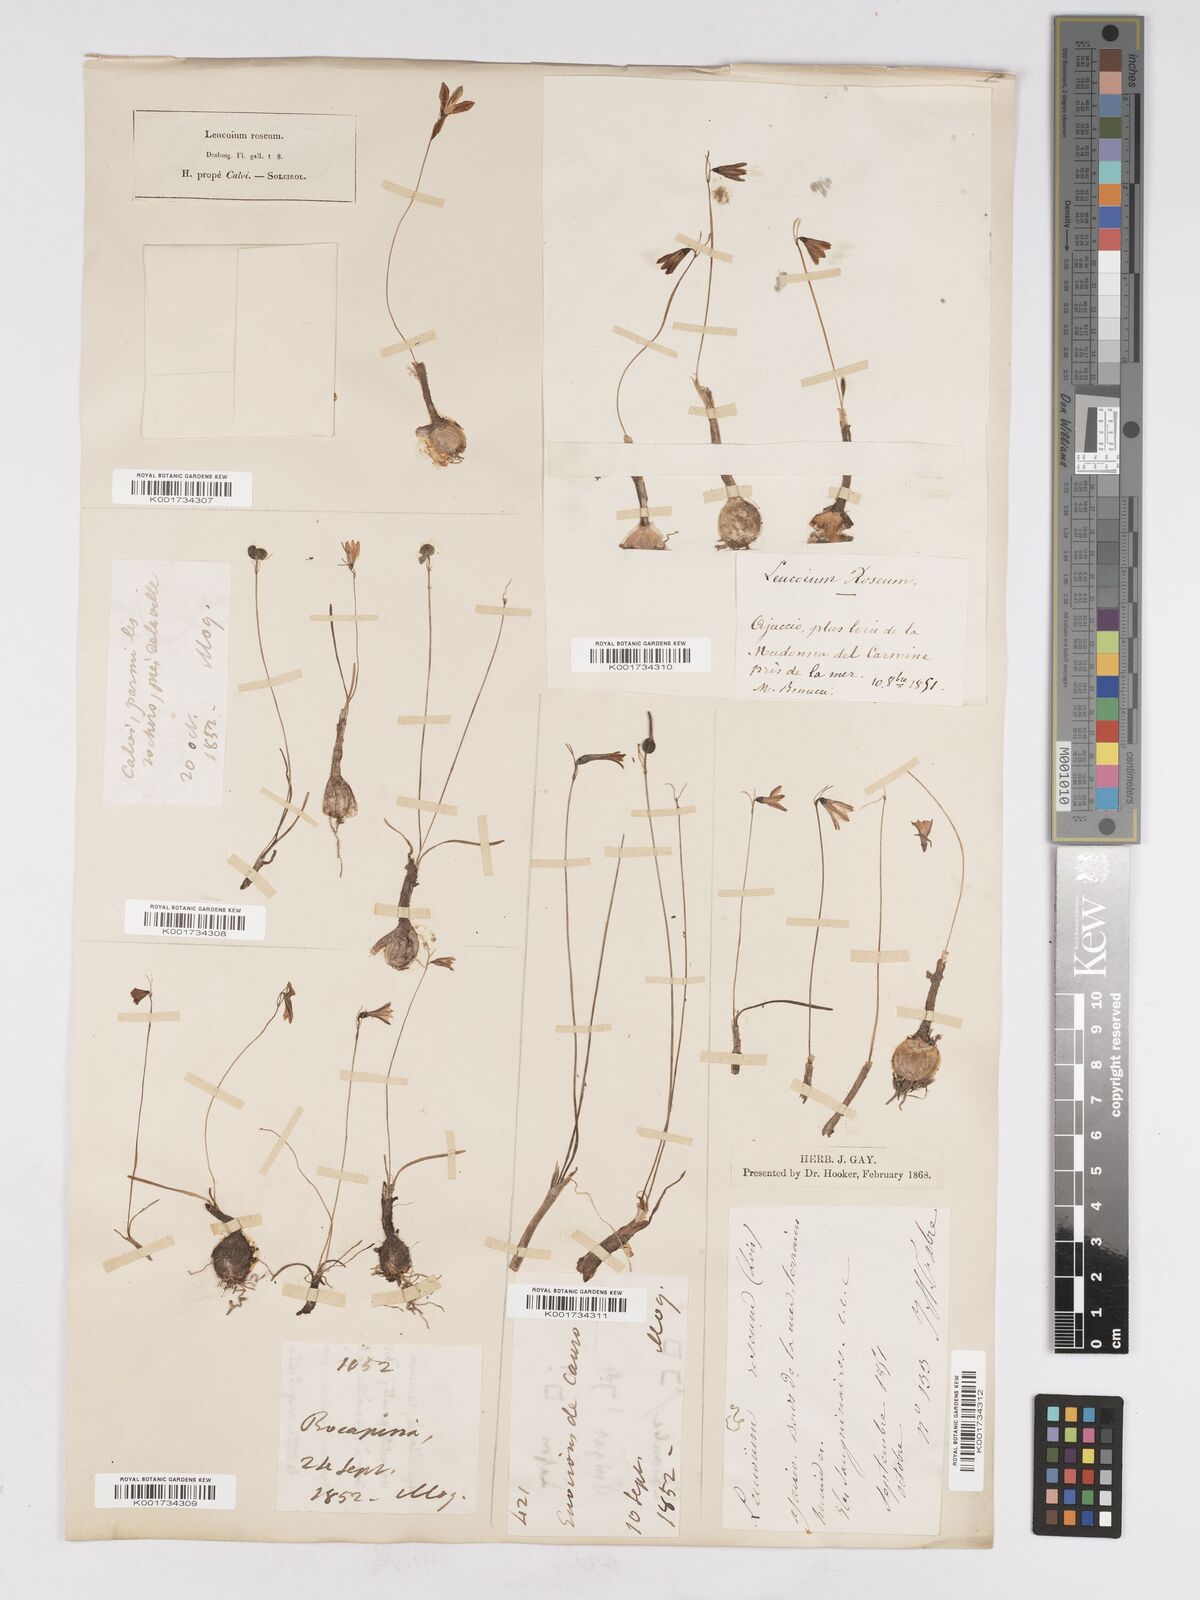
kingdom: Plantae
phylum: Tracheophyta
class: Liliopsida
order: Asparagales
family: Amaryllidaceae
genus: Acis
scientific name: Acis rosea
